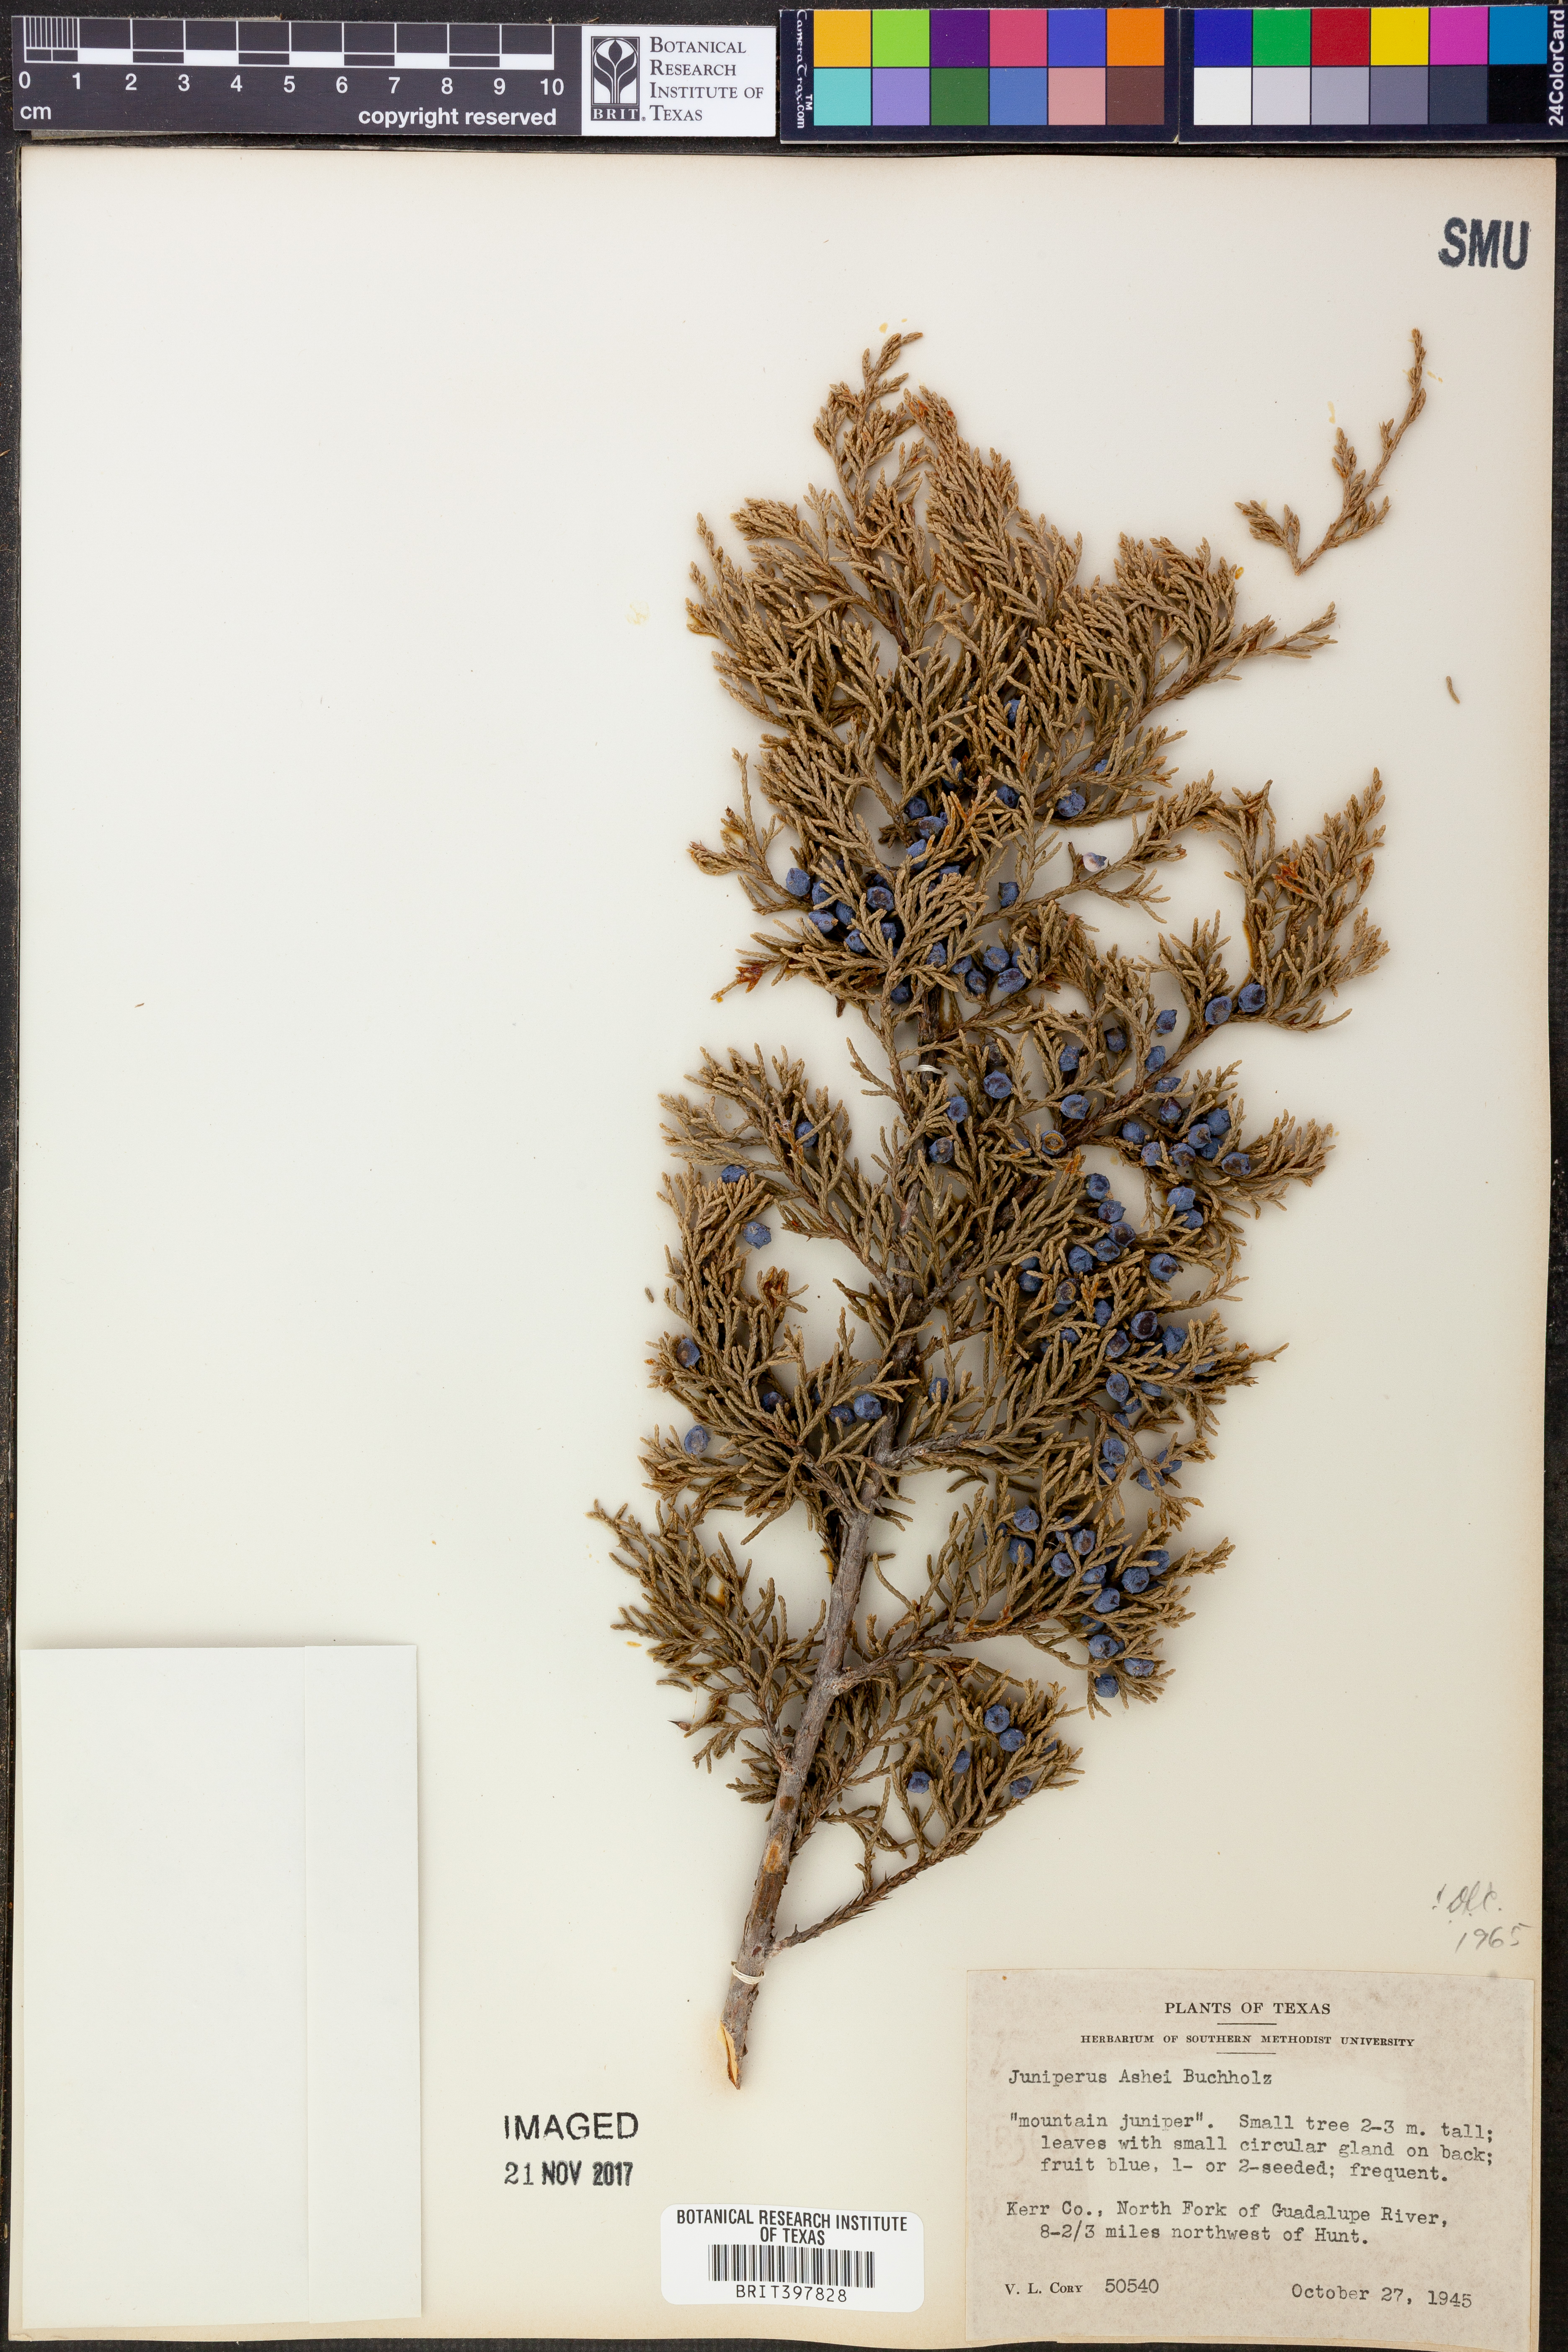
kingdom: Plantae
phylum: Tracheophyta
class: Pinopsida
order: Pinales
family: Cupressaceae
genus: Juniperus
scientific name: Juniperus ashei
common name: Mexican juniper
